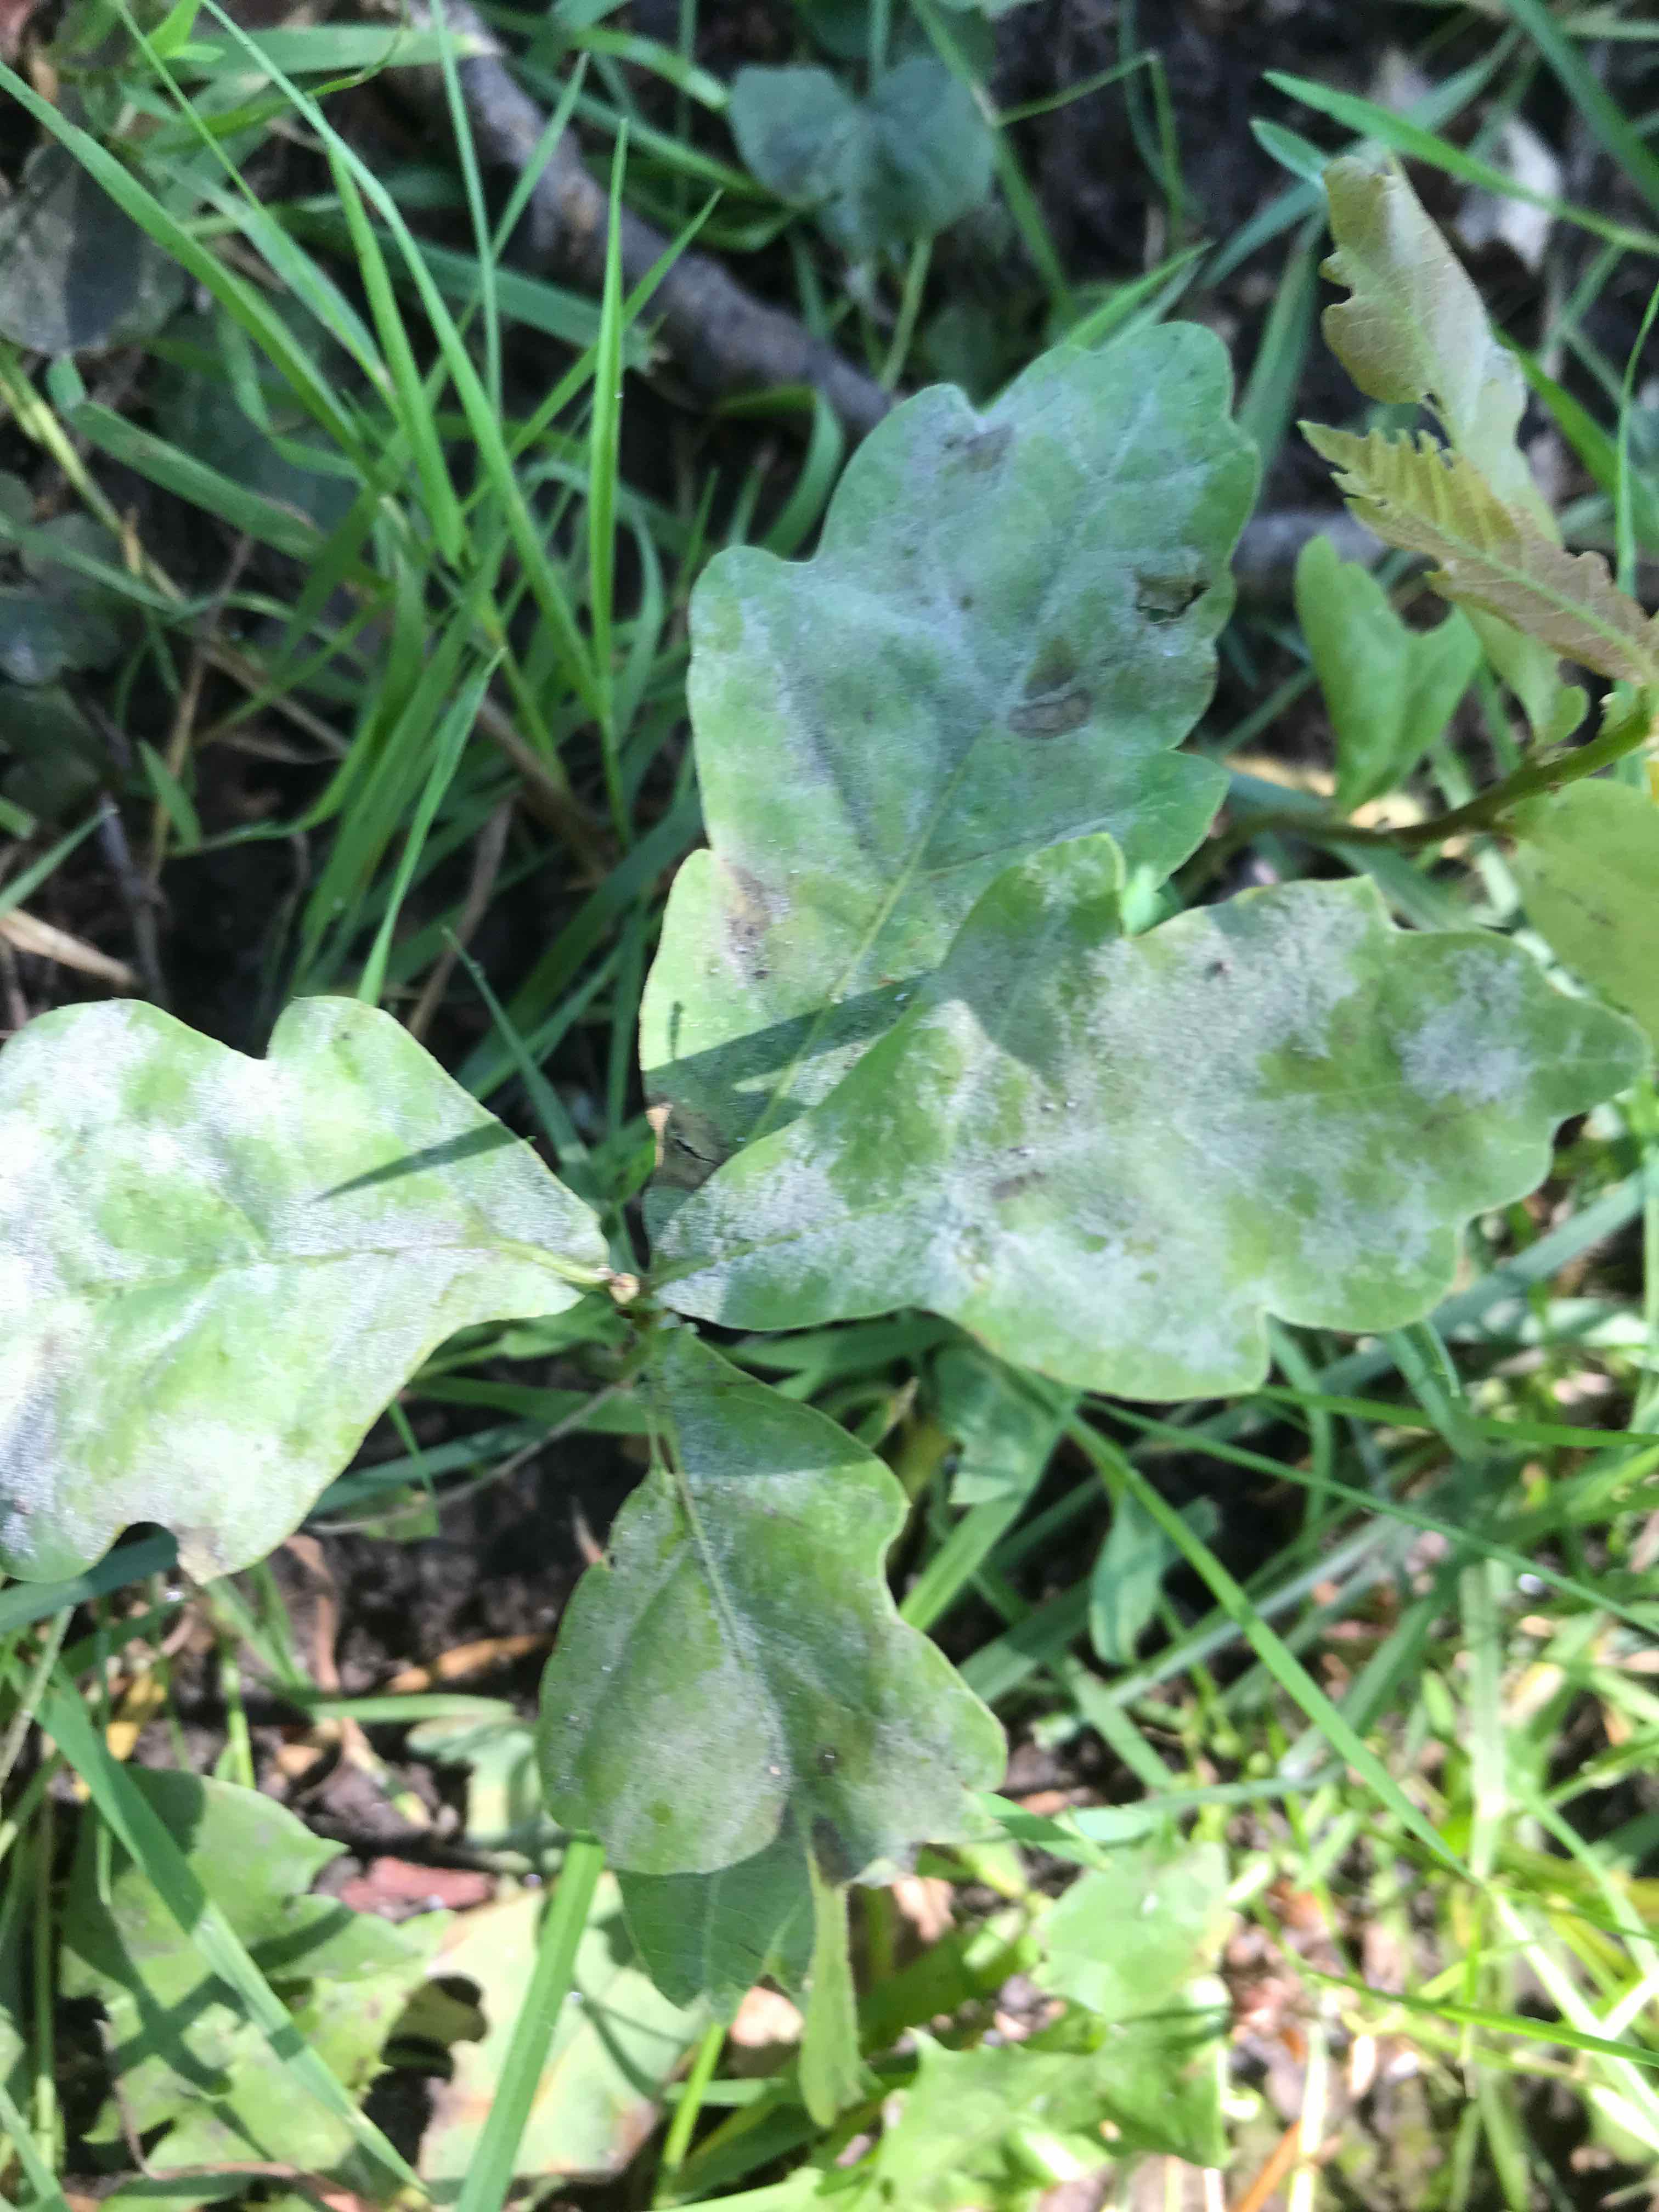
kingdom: Fungi
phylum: Ascomycota
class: Leotiomycetes
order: Helotiales
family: Erysiphaceae
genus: Erysiphe
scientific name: Erysiphe alphitoides
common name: ege-meldug
